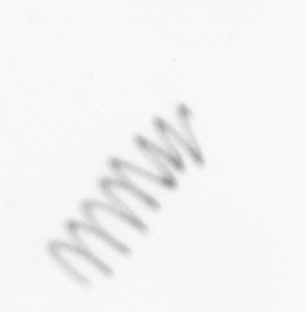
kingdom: Chromista
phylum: Ochrophyta
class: Bacillariophyceae
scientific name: Bacillariophyceae
